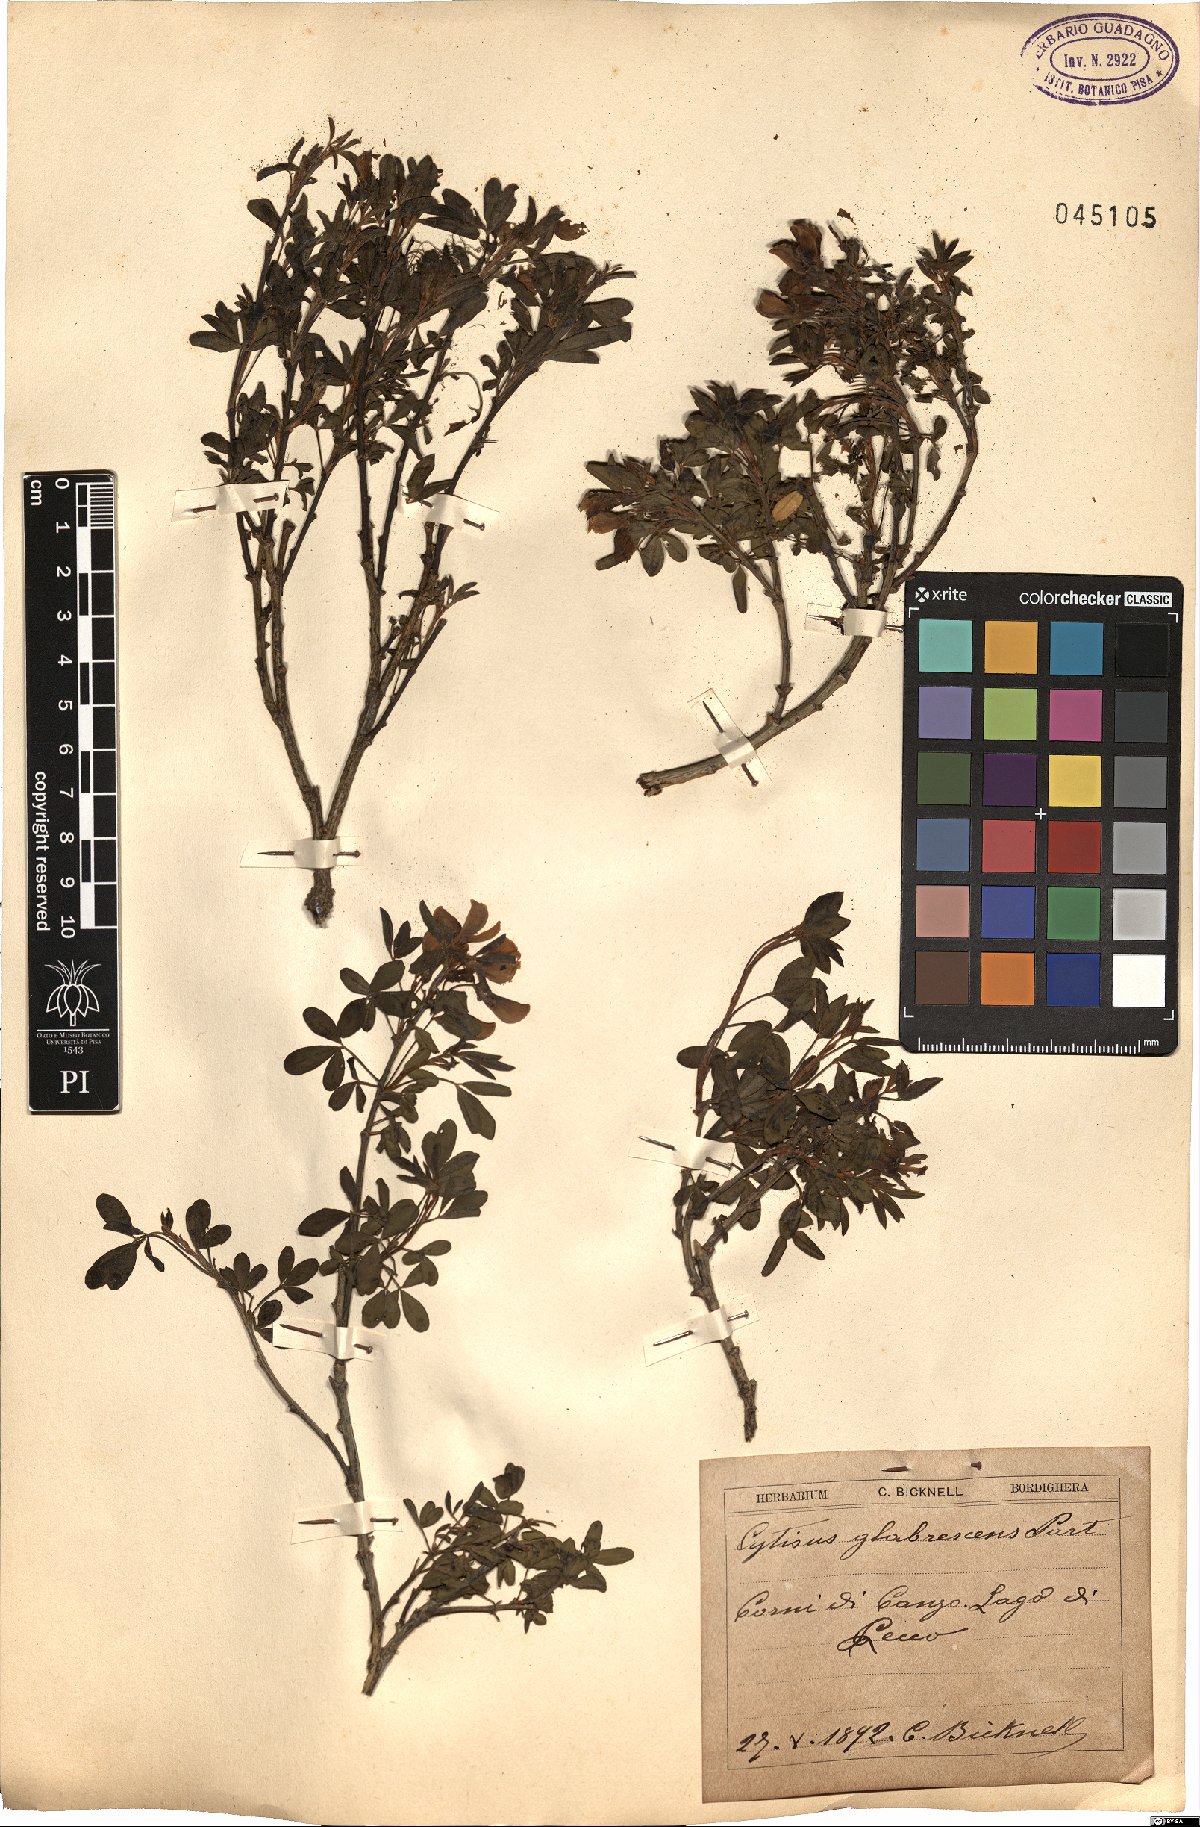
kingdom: Plantae
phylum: Tracheophyta
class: Magnoliopsida
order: Fabales
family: Fabaceae
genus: Cytisus
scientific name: Cytisus emeriflorus
